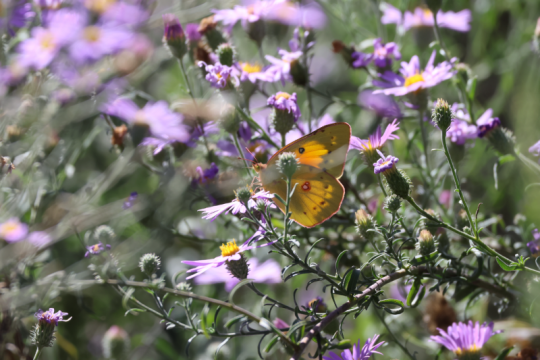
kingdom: Animalia
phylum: Arthropoda
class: Insecta
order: Lepidoptera
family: Pieridae
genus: Colias
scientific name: Colias eurytheme
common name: Orange Sulphur
